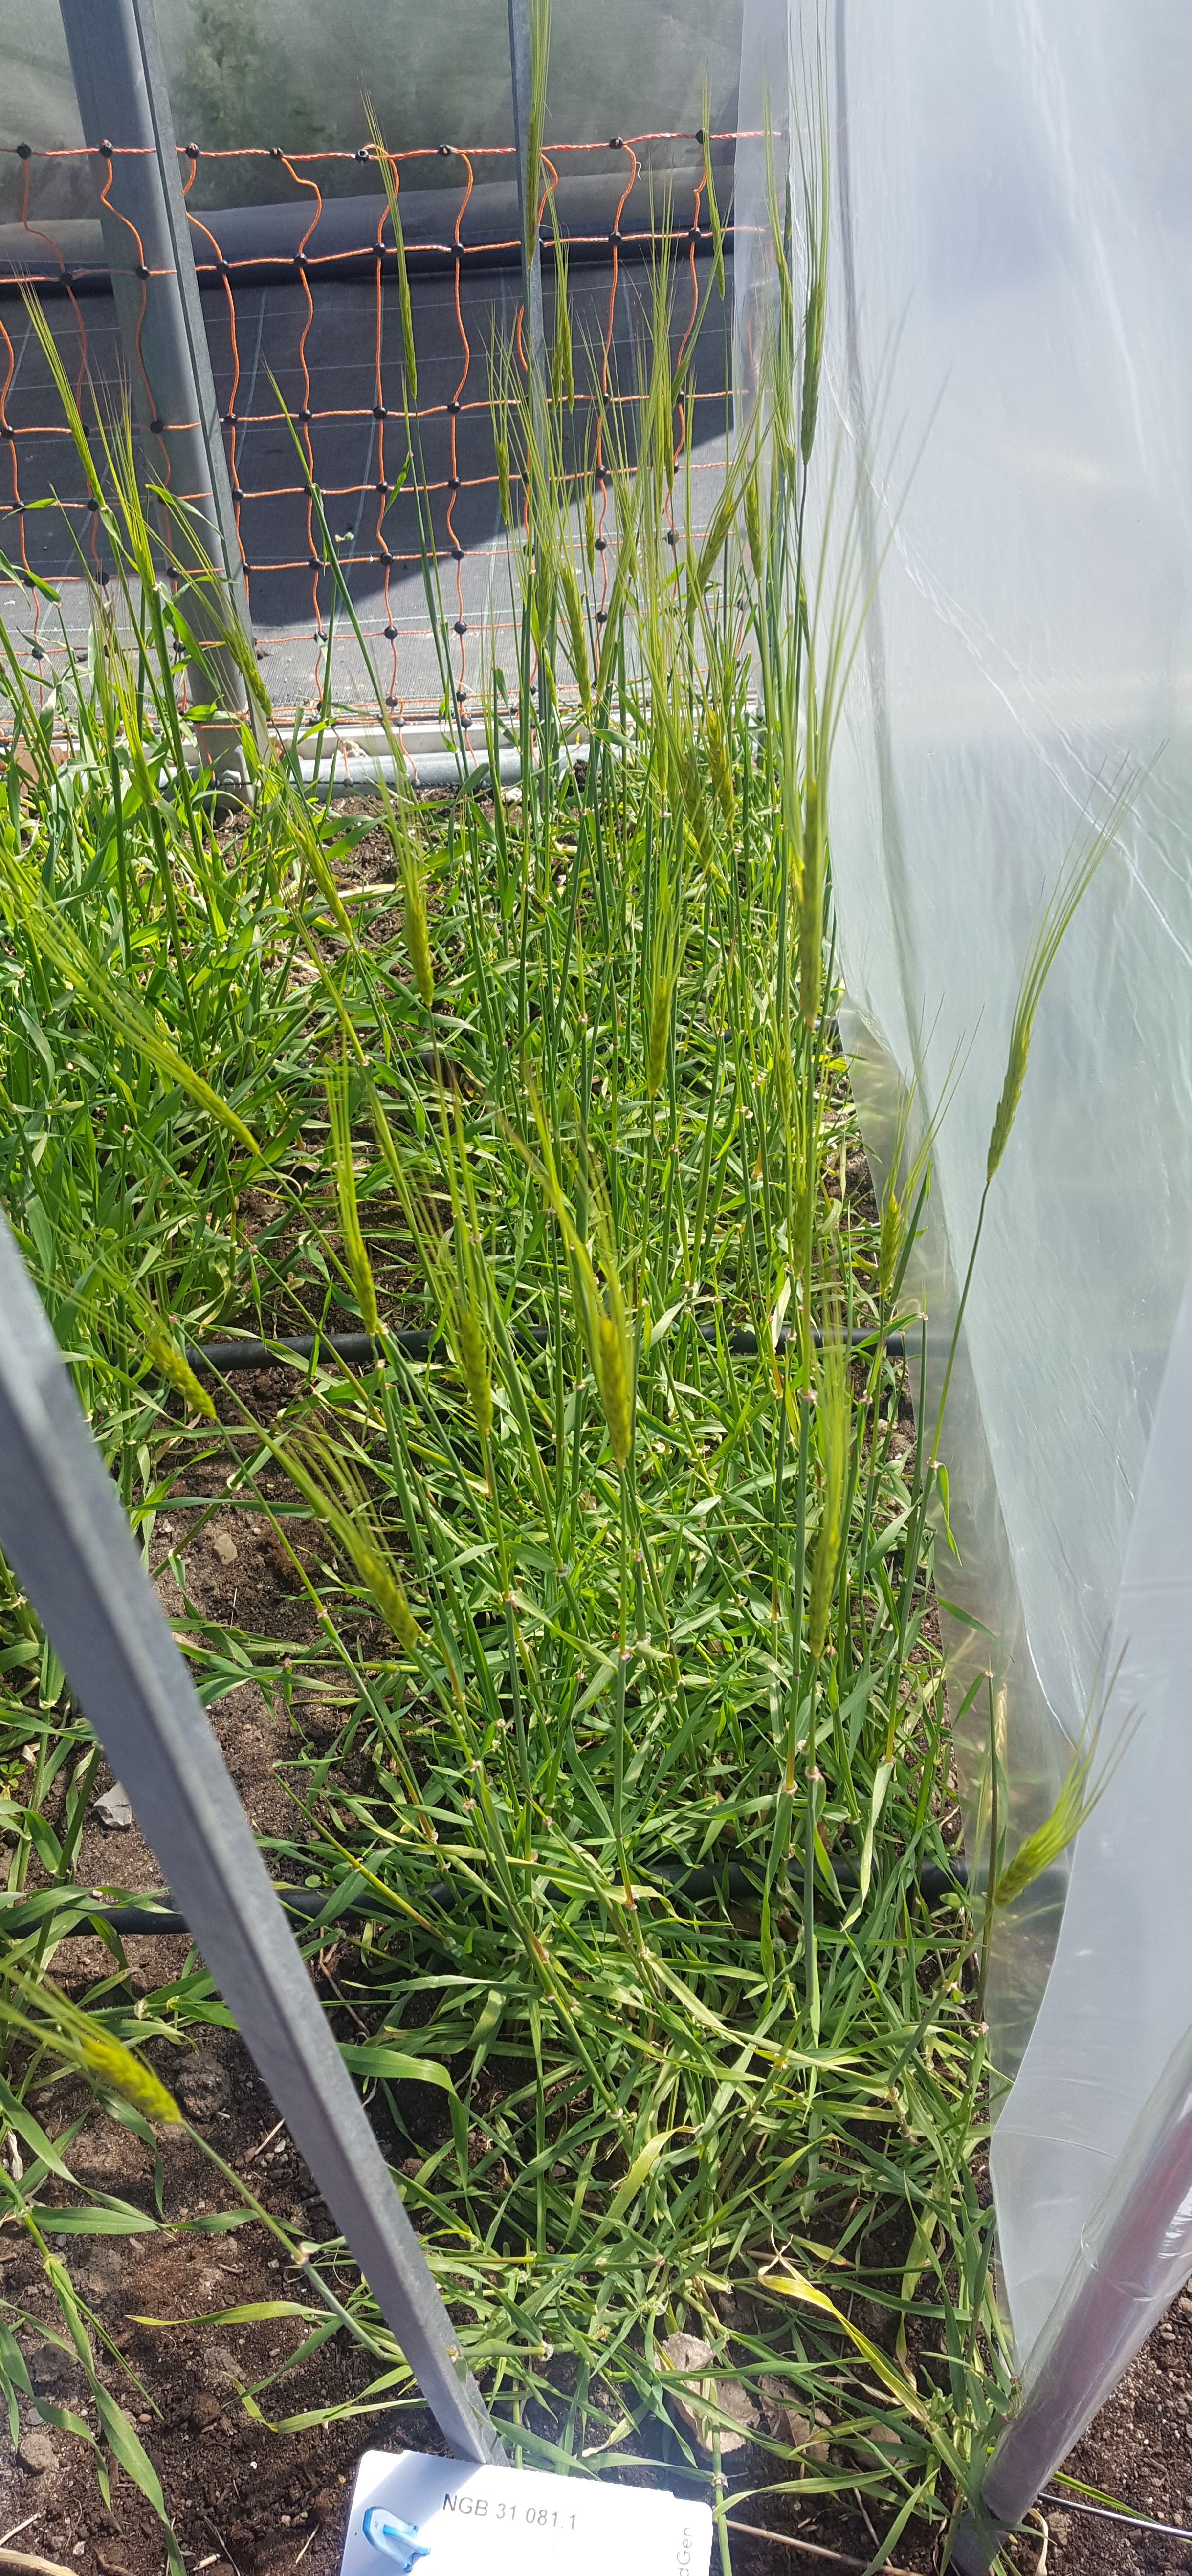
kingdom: Plantae
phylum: Tracheophyta
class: Liliopsida
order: Poales
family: Poaceae
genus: Hordeum
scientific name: Hordeum spontaneum
